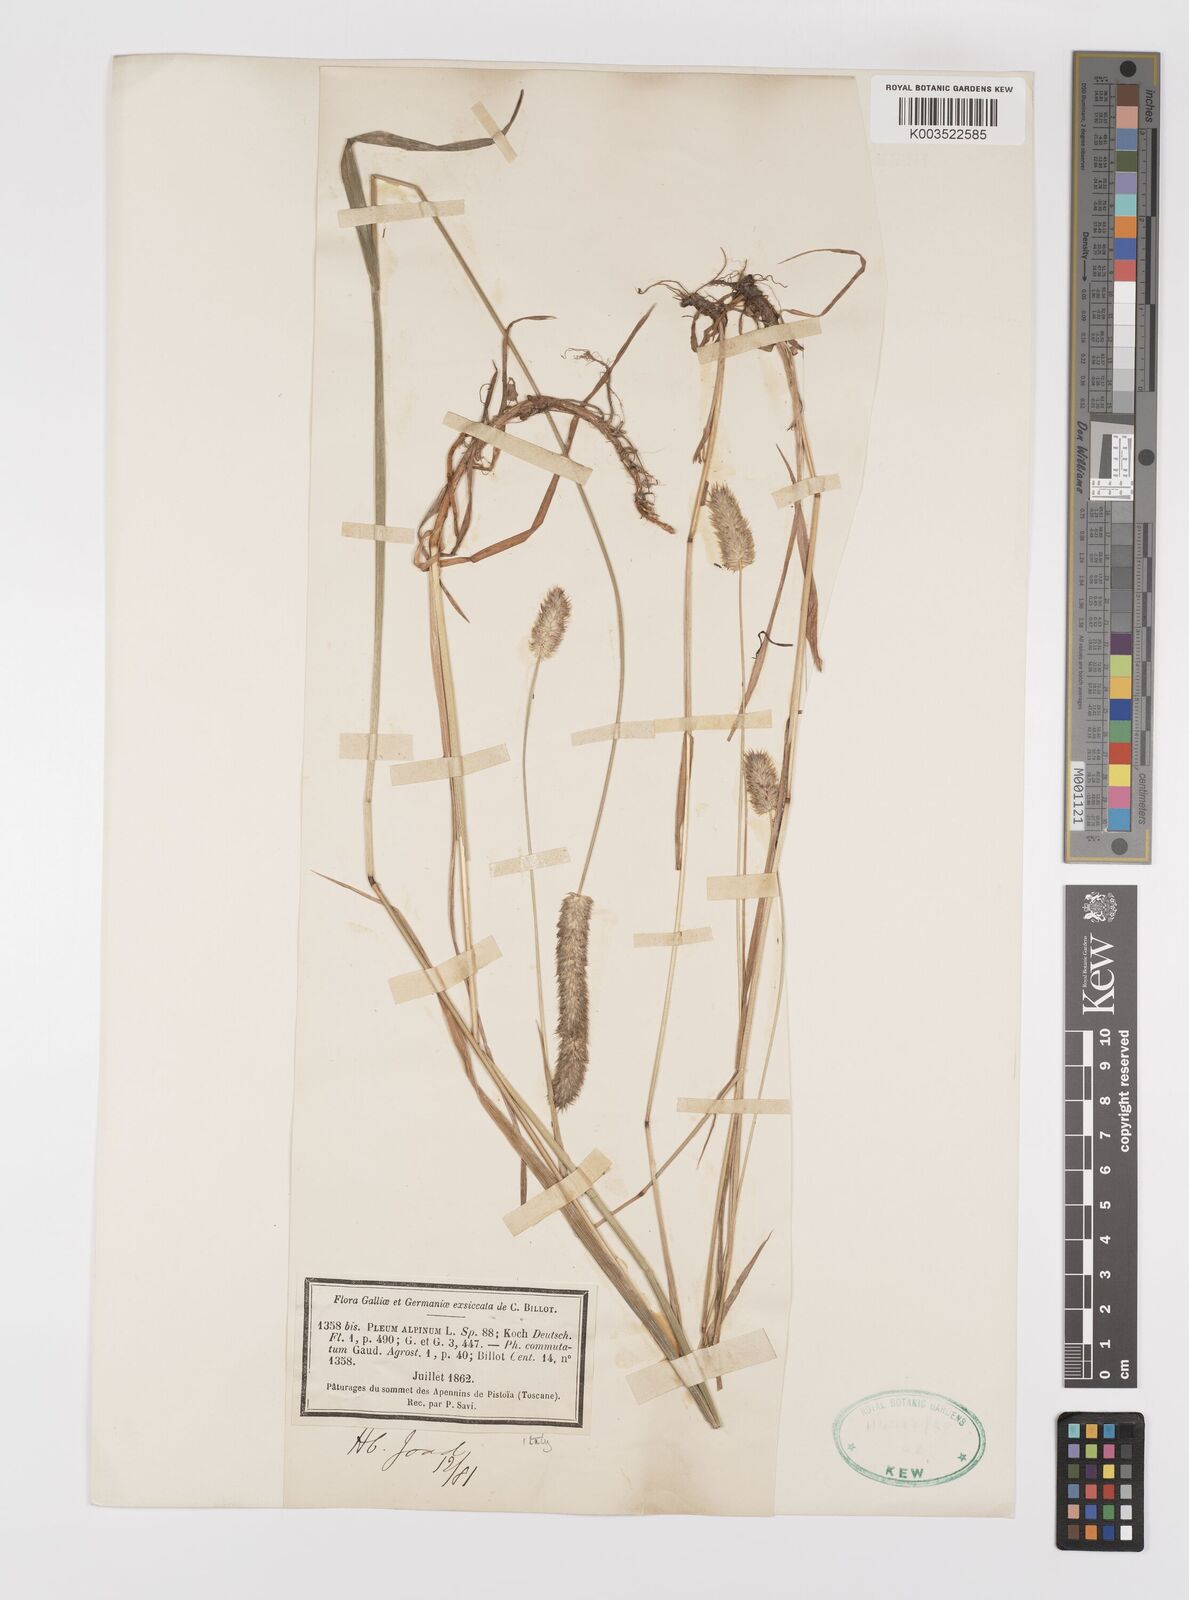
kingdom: Plantae
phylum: Tracheophyta
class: Liliopsida
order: Poales
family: Poaceae
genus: Phleum
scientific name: Phleum alpinum
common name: Alpine cat's-tail
